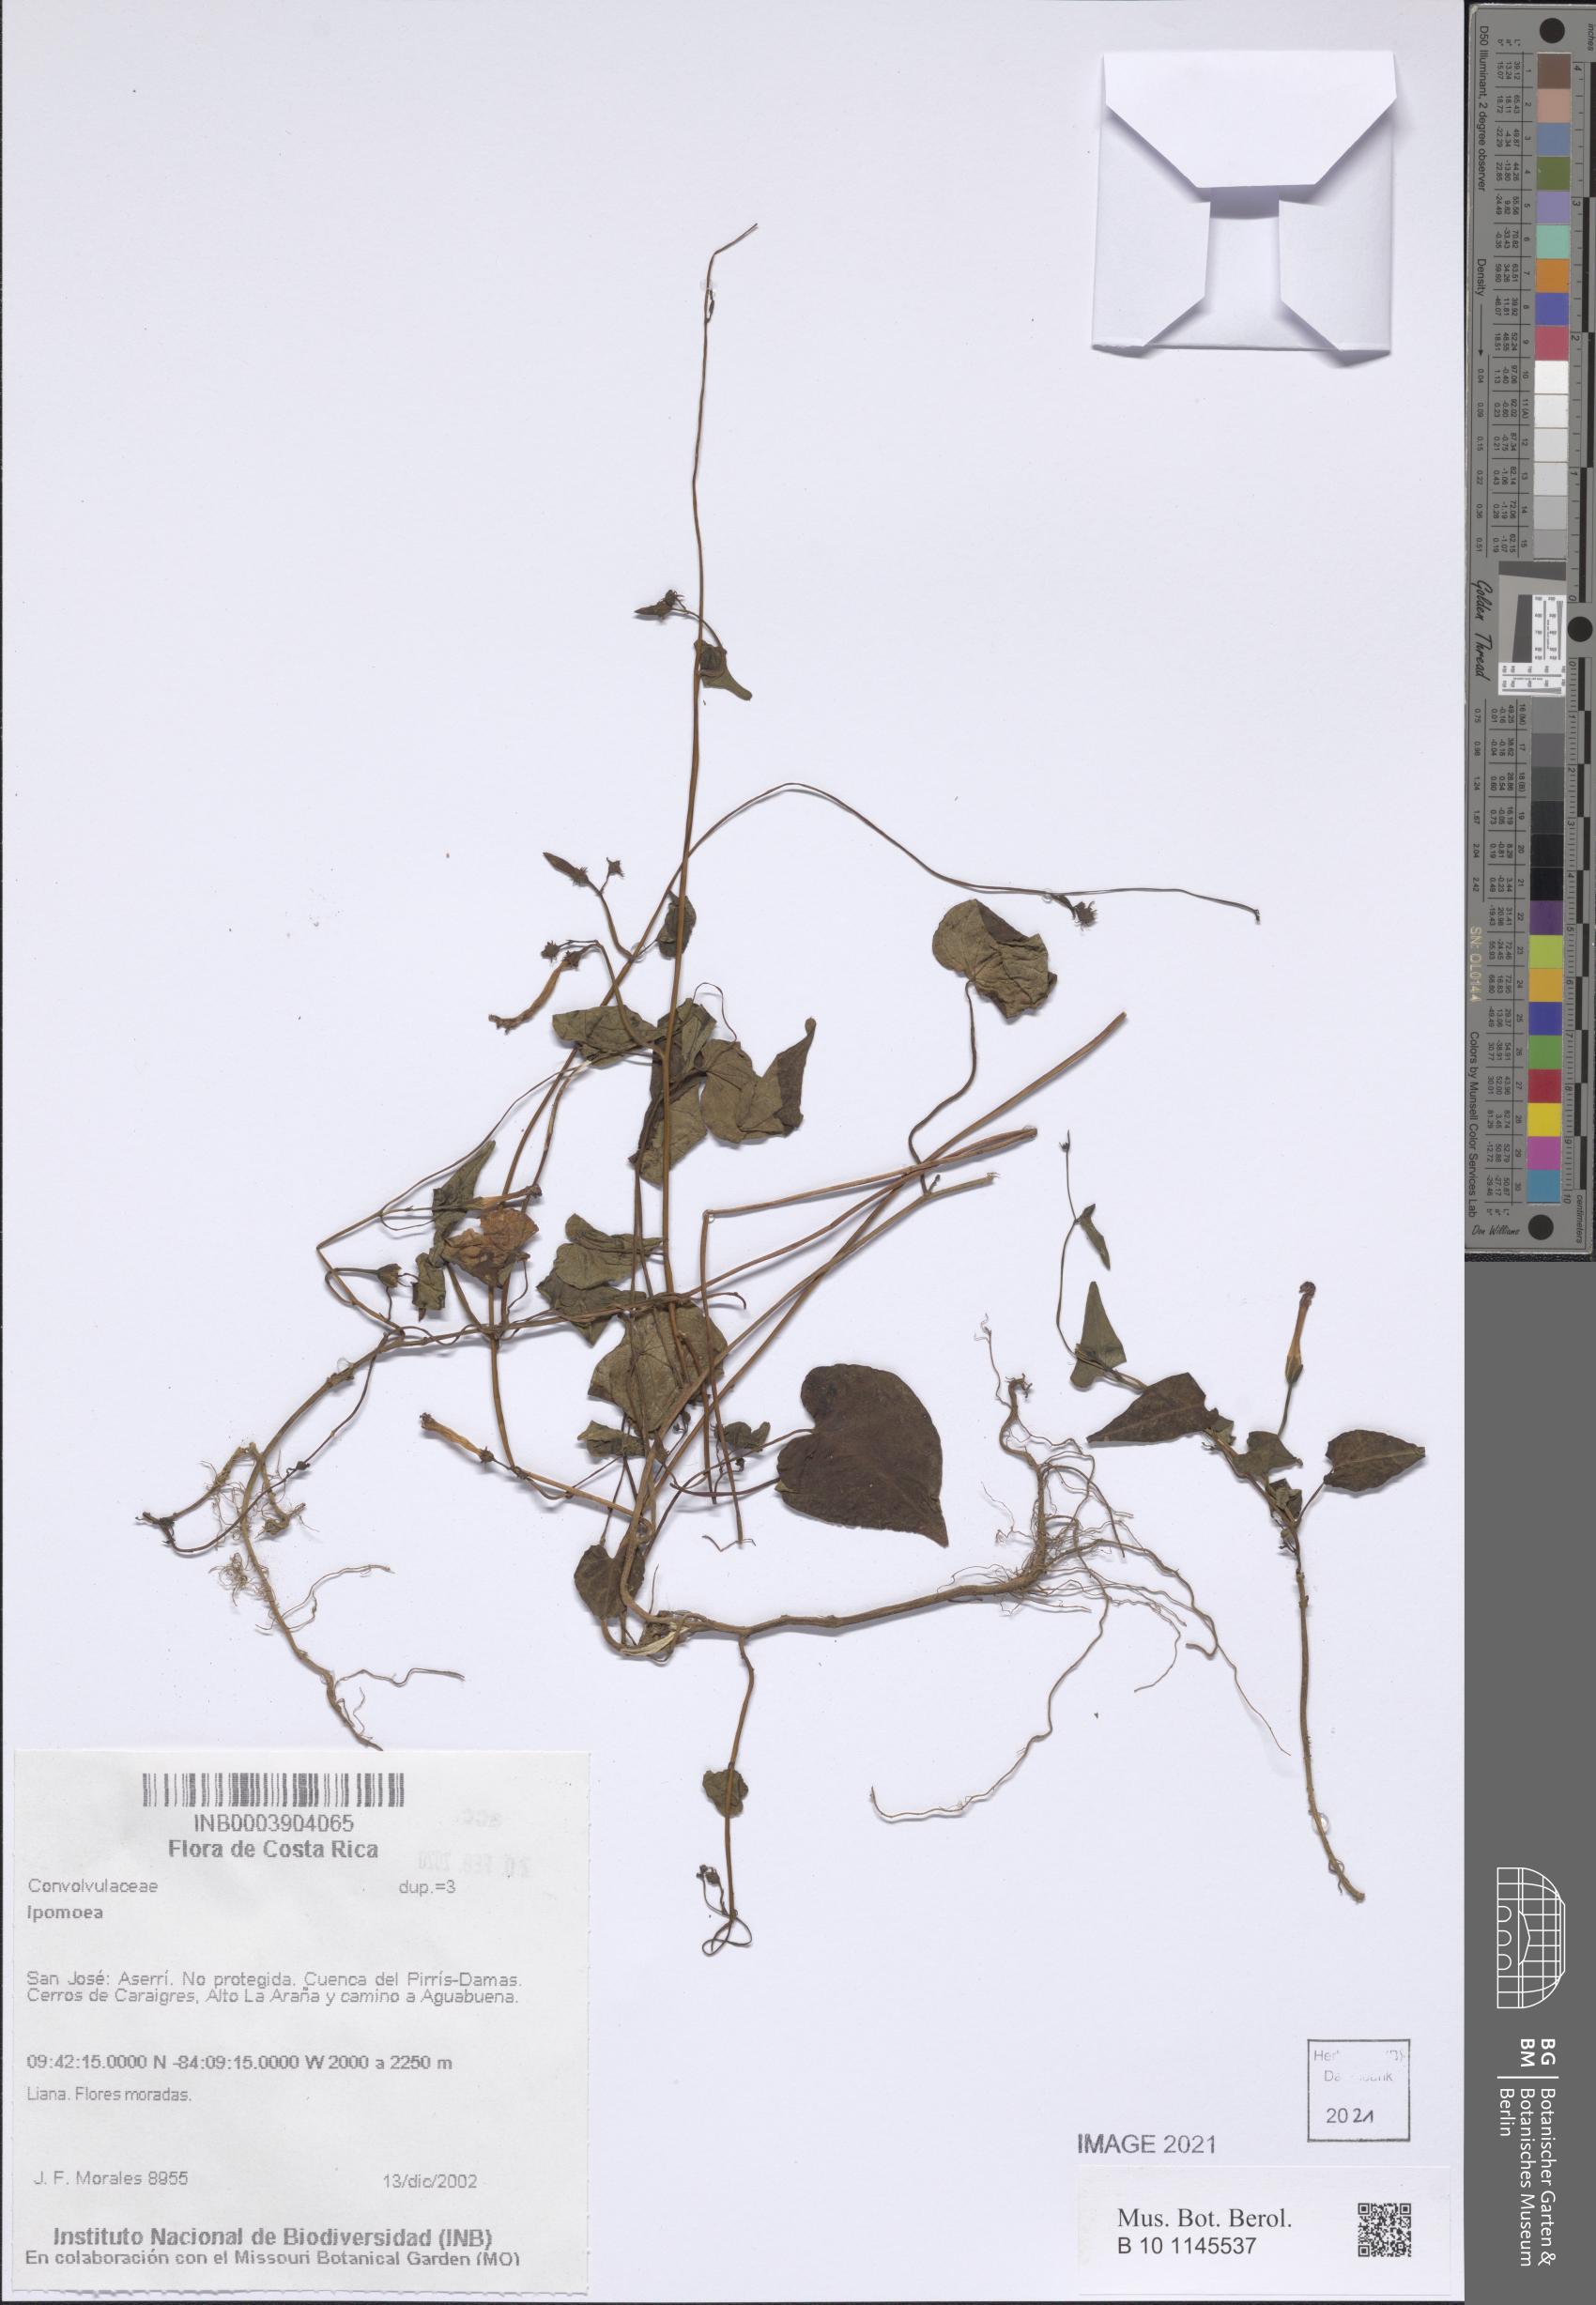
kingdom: Plantae
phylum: Tracheophyta
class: Magnoliopsida
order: Solanales
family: Convolvulaceae
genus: Ipomoea
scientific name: Ipomoea
